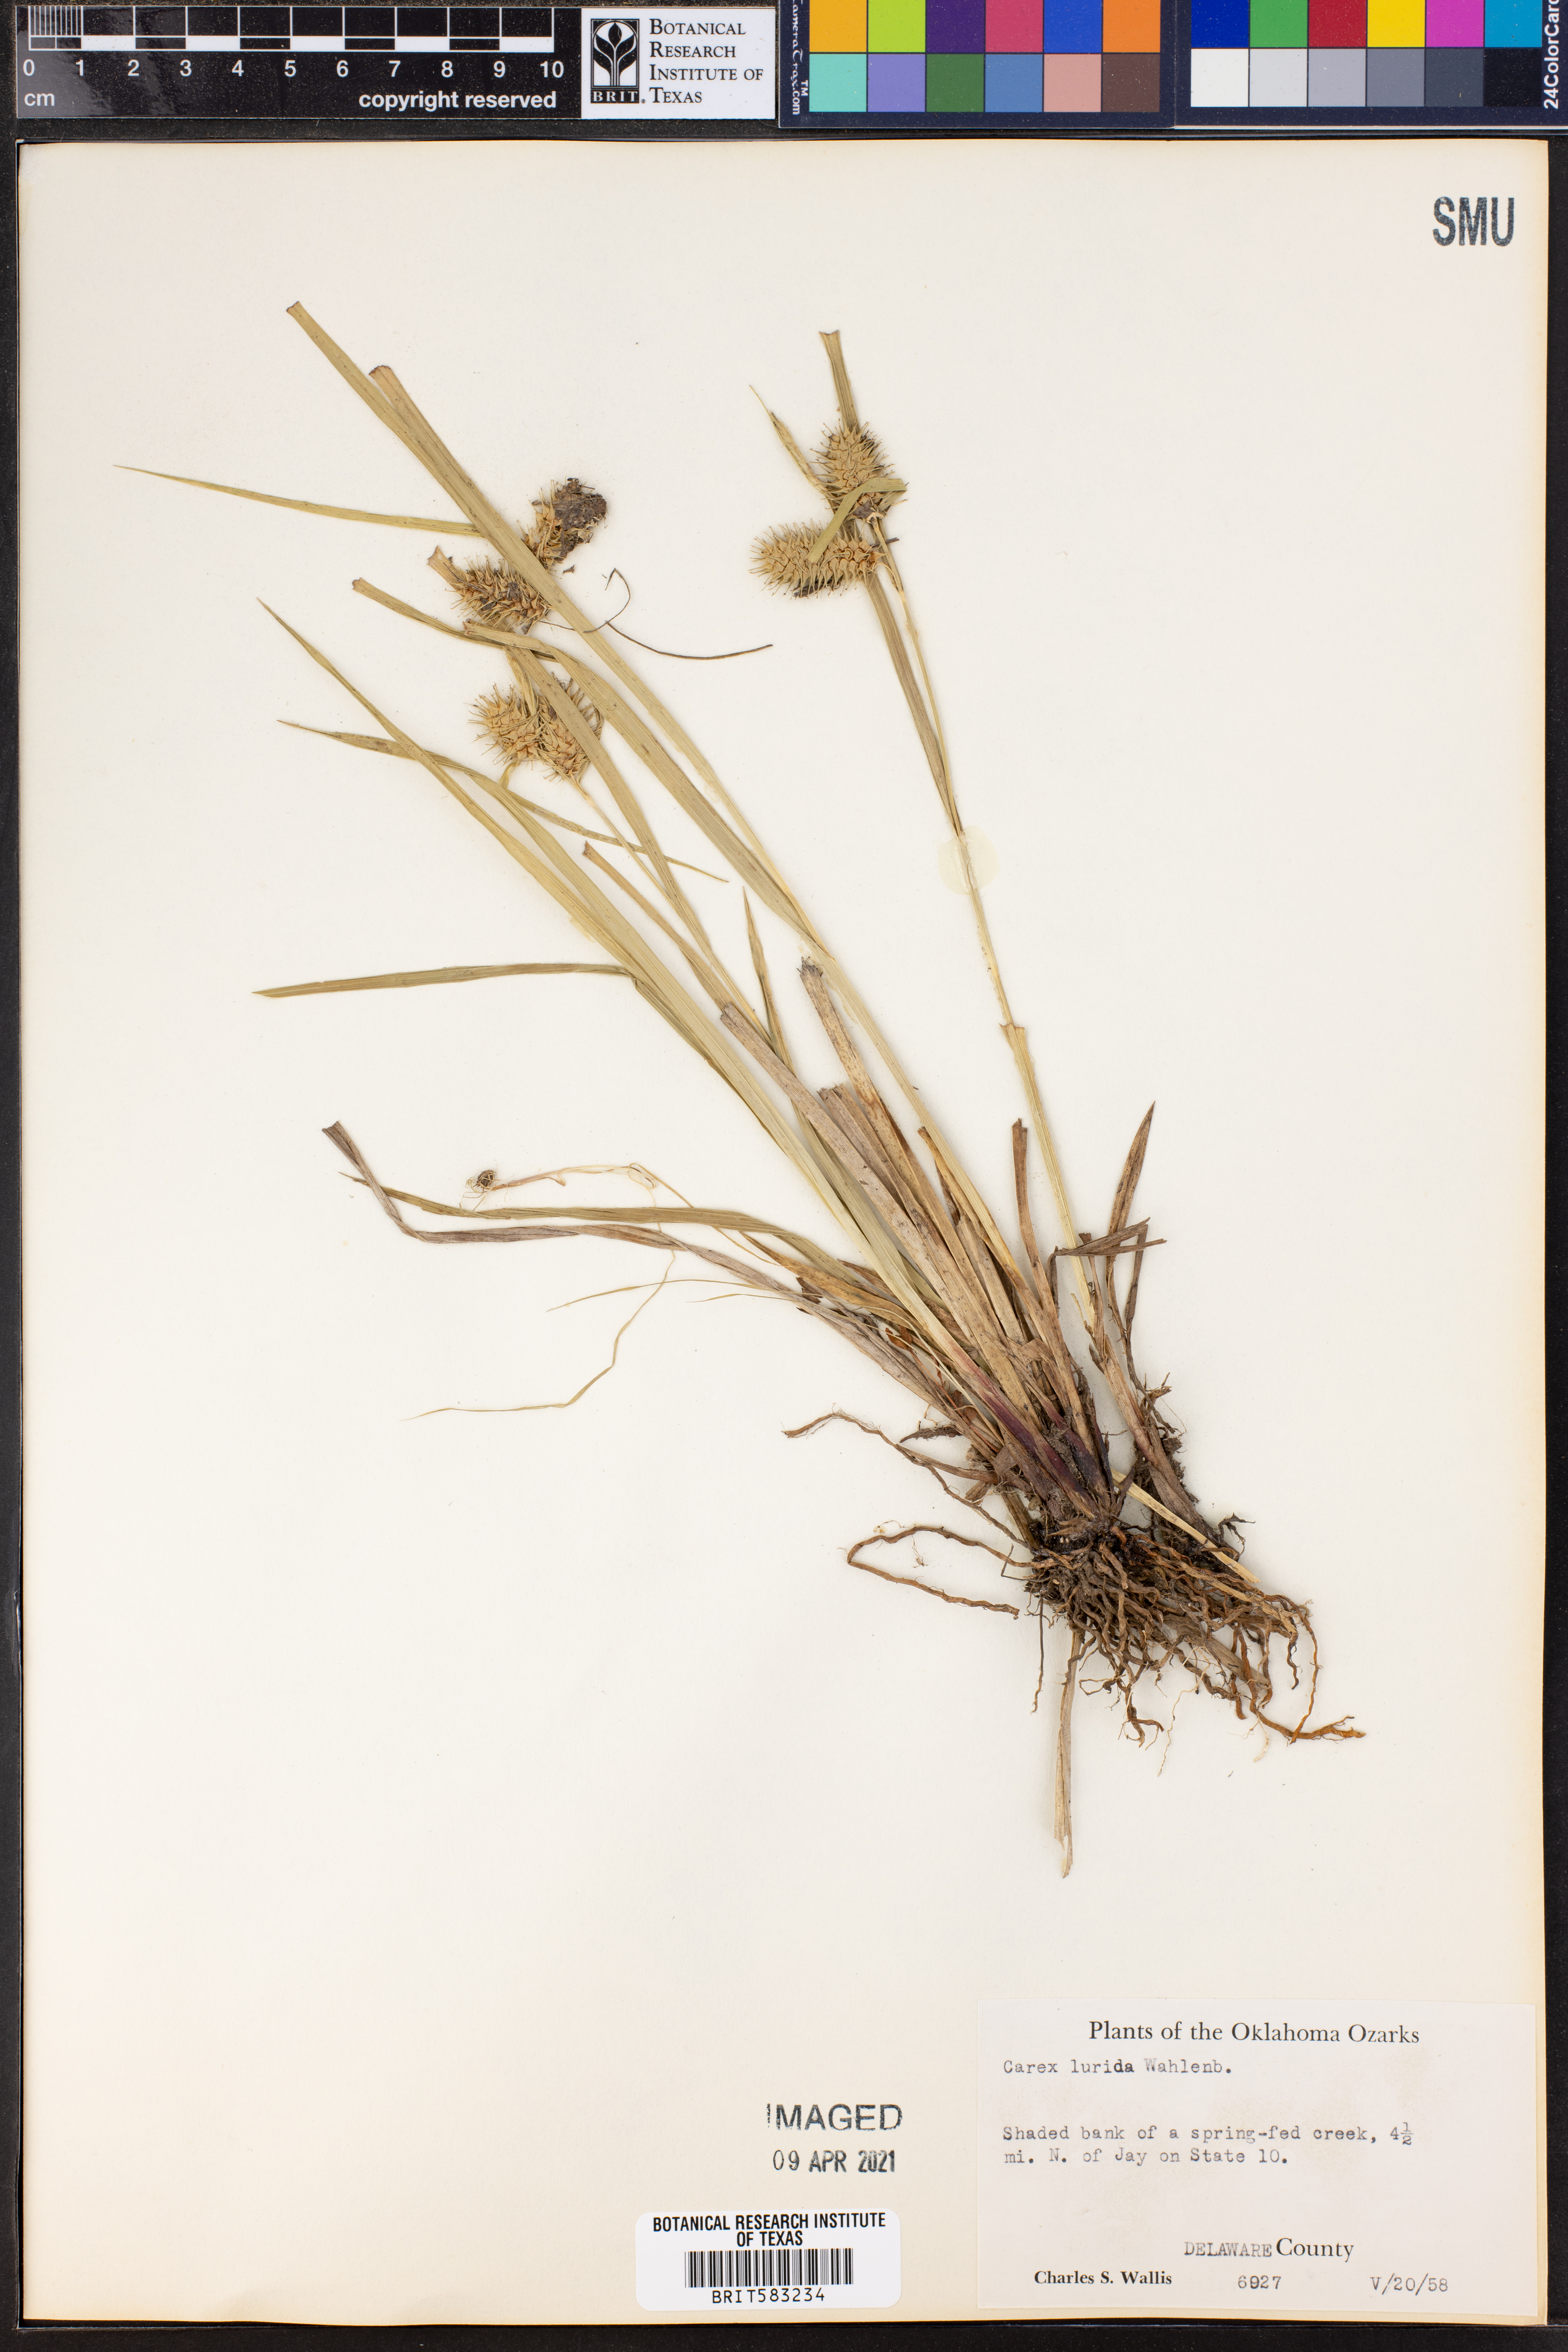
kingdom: Plantae
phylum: Tracheophyta
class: Liliopsida
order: Poales
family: Cyperaceae
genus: Carex
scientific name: Carex lurida
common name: Sallow sedge
